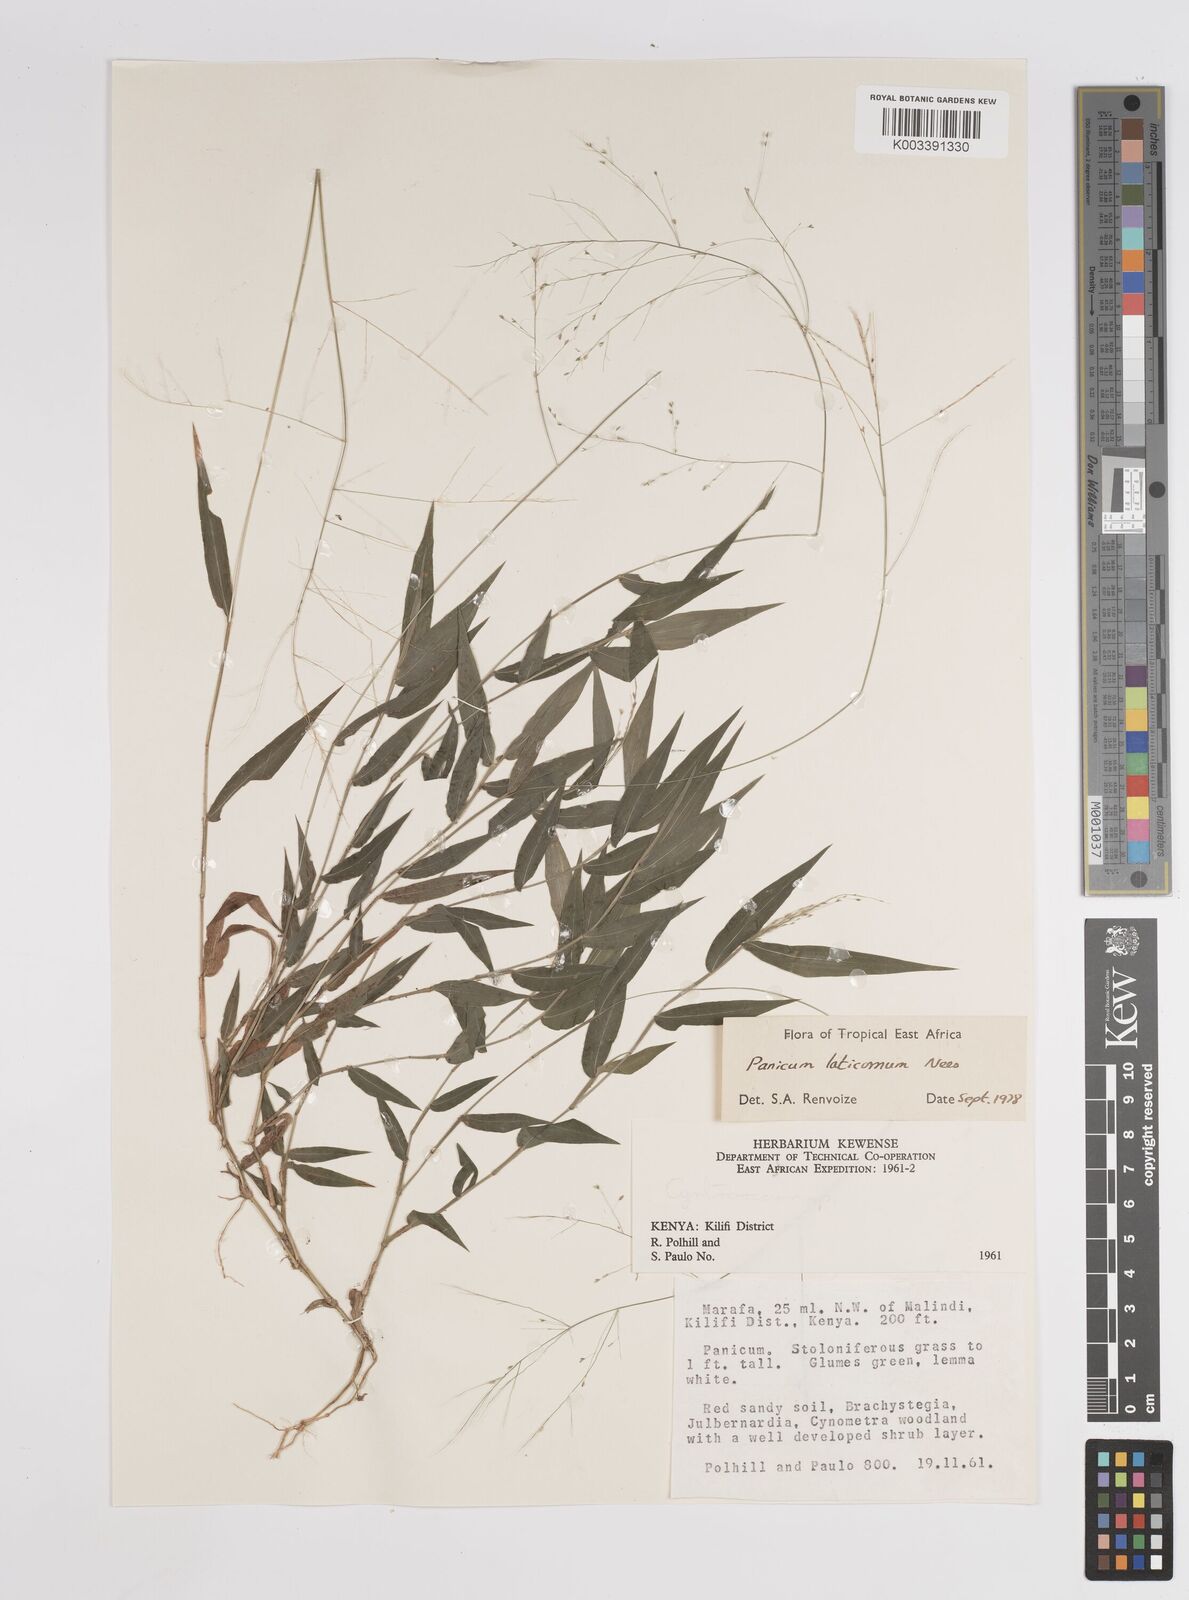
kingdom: Plantae
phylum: Tracheophyta
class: Liliopsida
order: Poales
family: Poaceae
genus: Panicum
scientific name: Panicum laticomum
